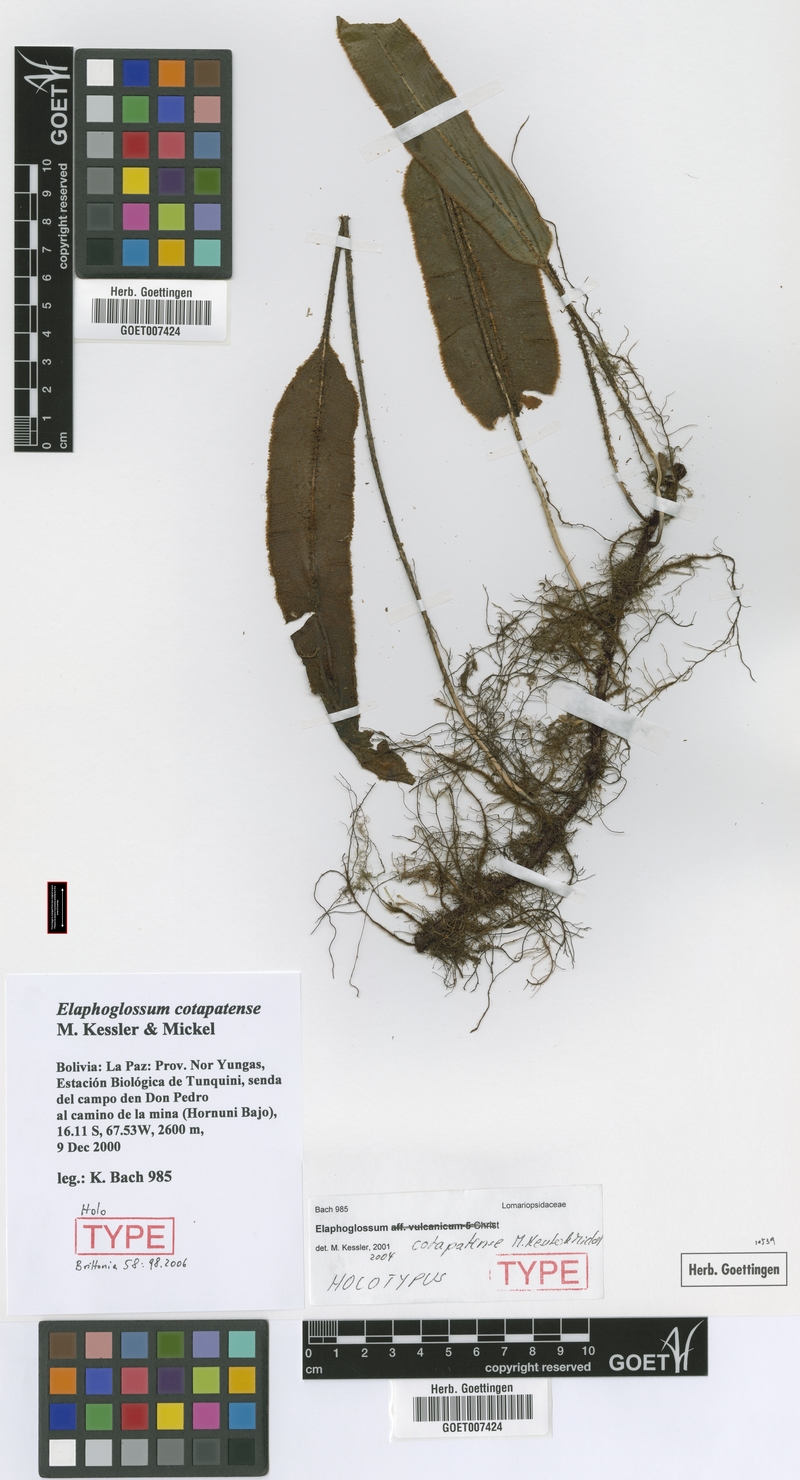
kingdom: Plantae
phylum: Tracheophyta
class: Polypodiopsida
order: Polypodiales
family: Dryopteridaceae
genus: Elaphoglossum
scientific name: Elaphoglossum cotapatense
